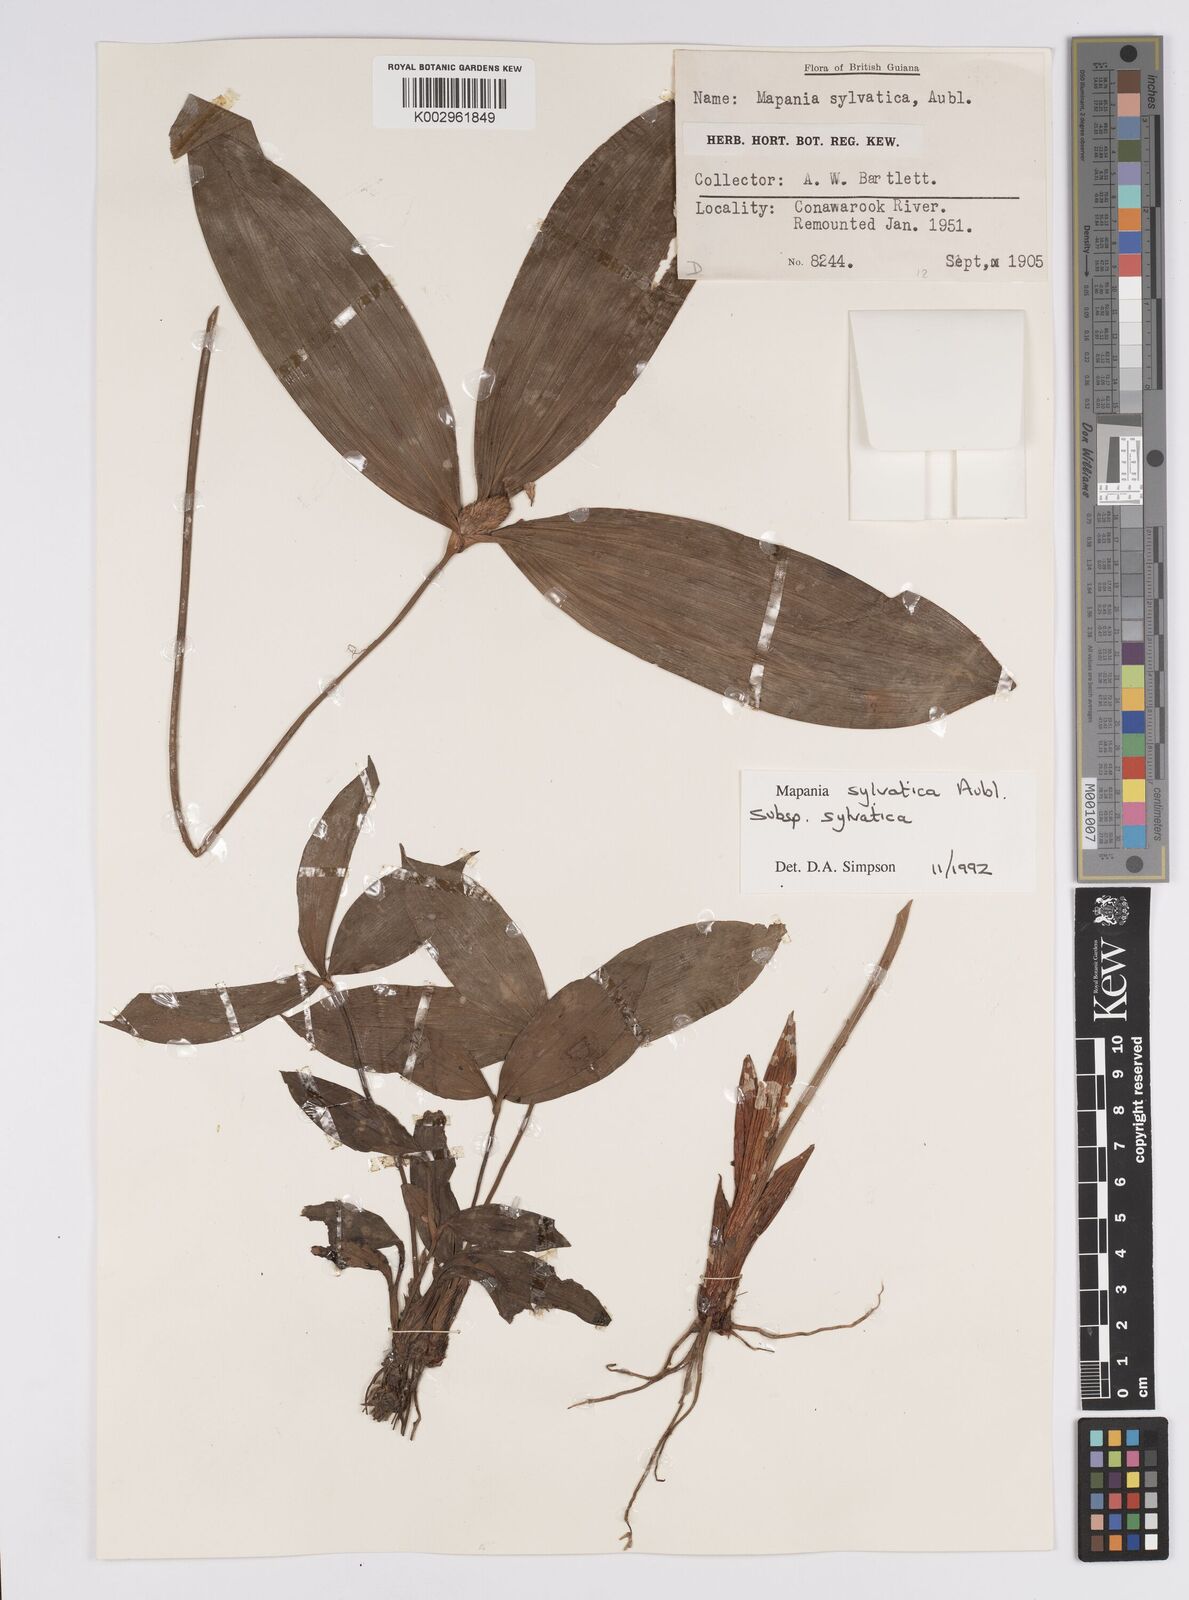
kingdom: Plantae
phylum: Tracheophyta
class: Liliopsida
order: Poales
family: Cyperaceae
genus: Mapania
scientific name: Mapania sylvatica
